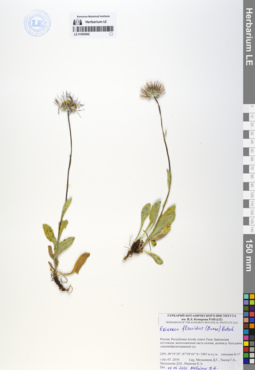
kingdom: Plantae
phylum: Tracheophyta
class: Magnoliopsida
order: Asterales
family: Asteraceae
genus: Tibetiodes
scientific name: Tibetiodes flaccida
